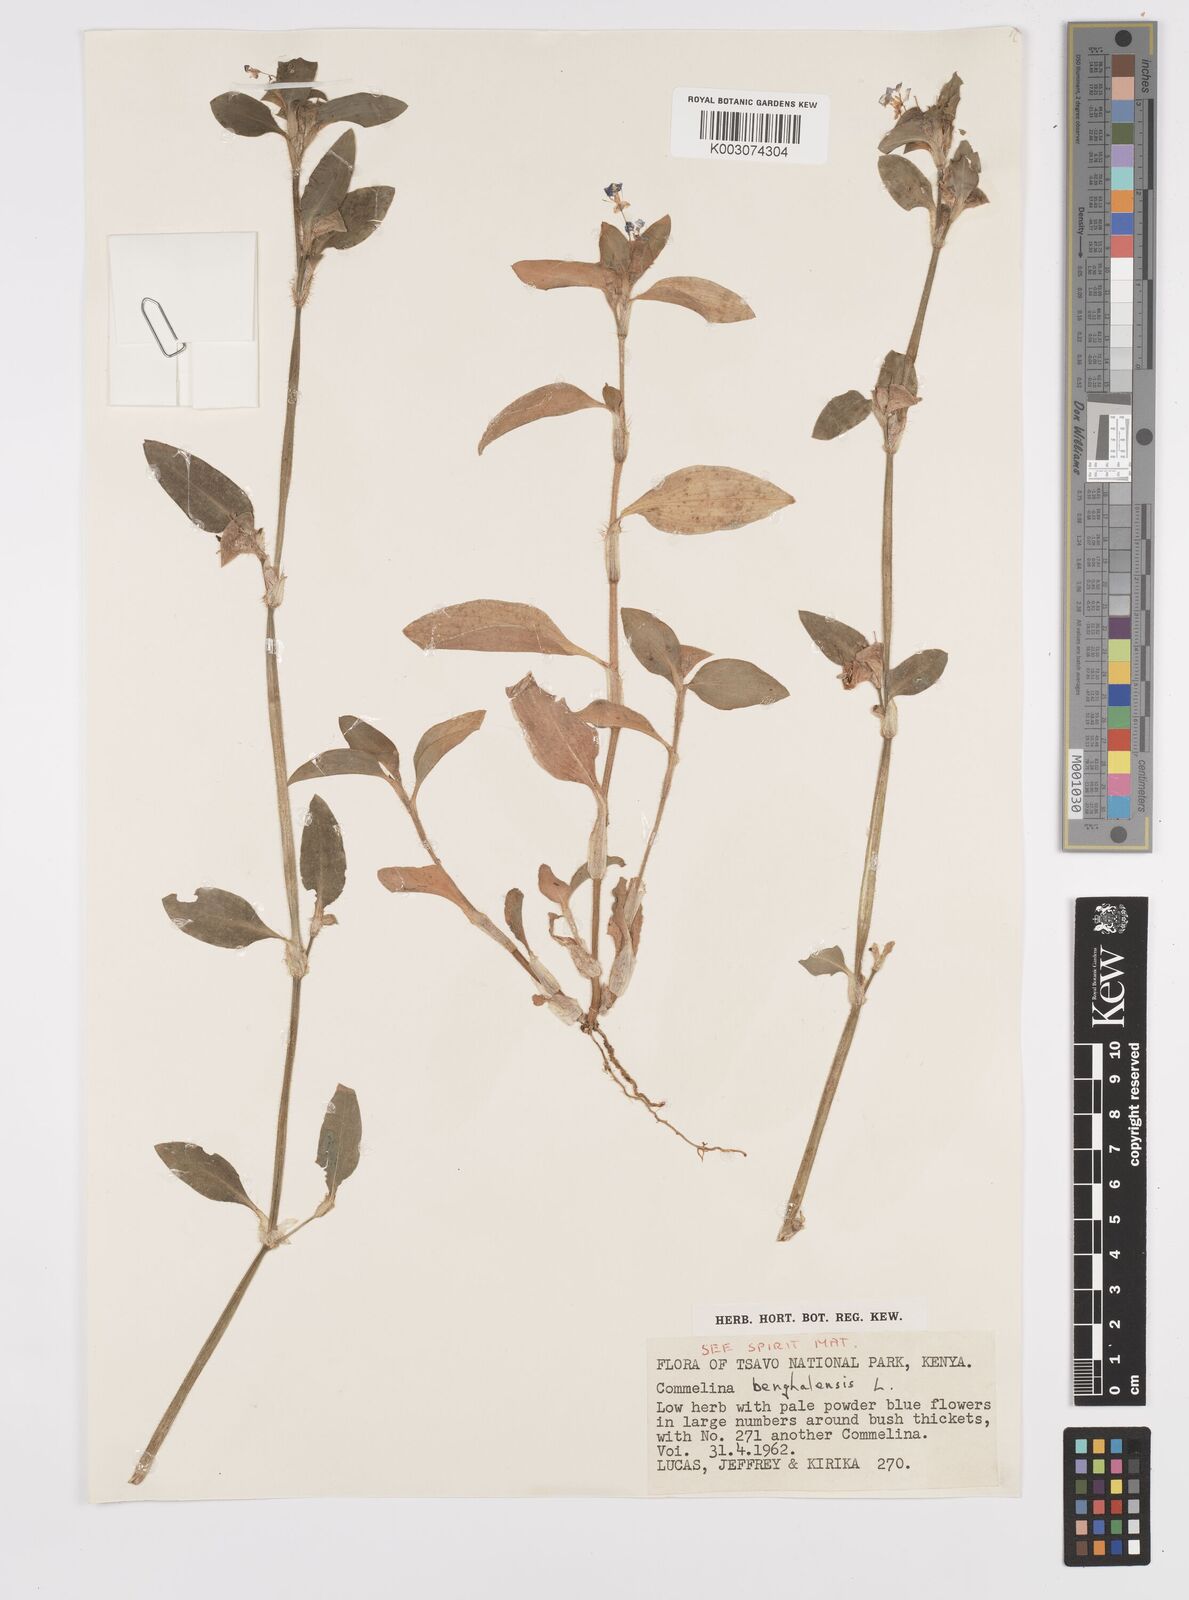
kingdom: Plantae
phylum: Tracheophyta
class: Liliopsida
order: Commelinales
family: Commelinaceae
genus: Commelina
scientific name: Commelina benghalensis
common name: Jio
